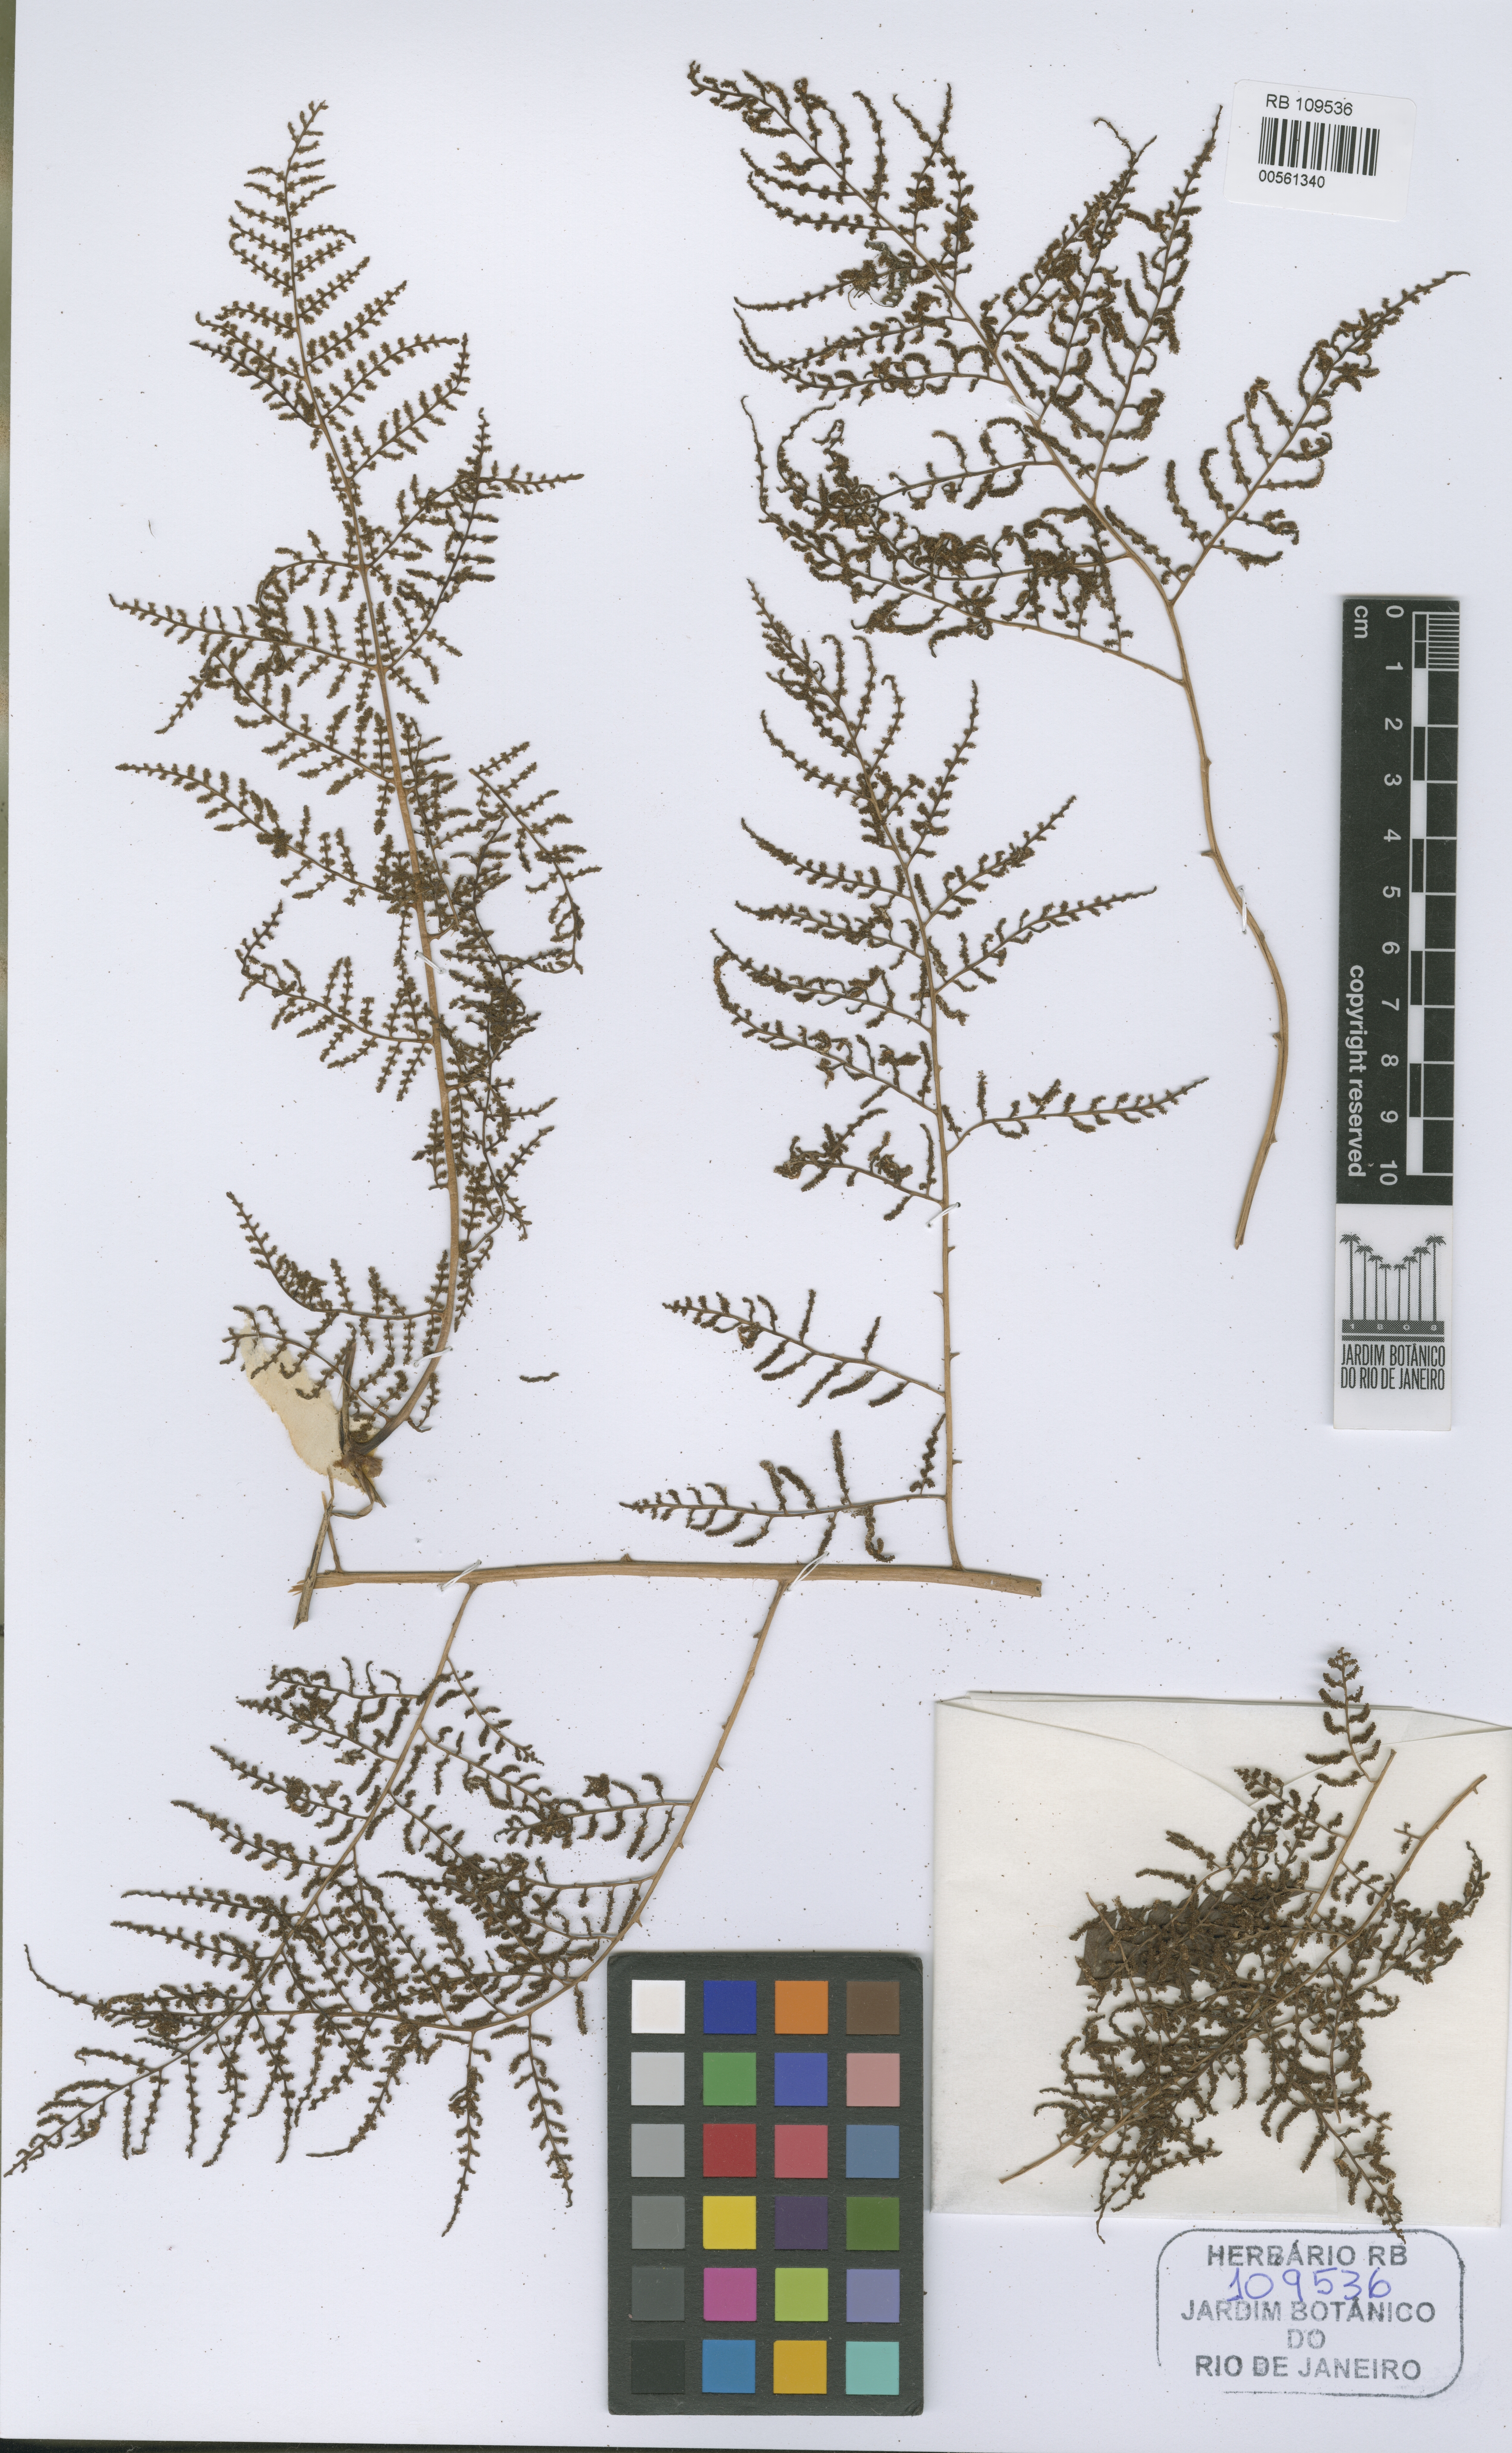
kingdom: Plantae
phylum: Tracheophyta
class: Polypodiopsida
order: Polypodiales
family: Dryopteridaceae
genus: Polybotrya
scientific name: Polybotrya semipinnata
